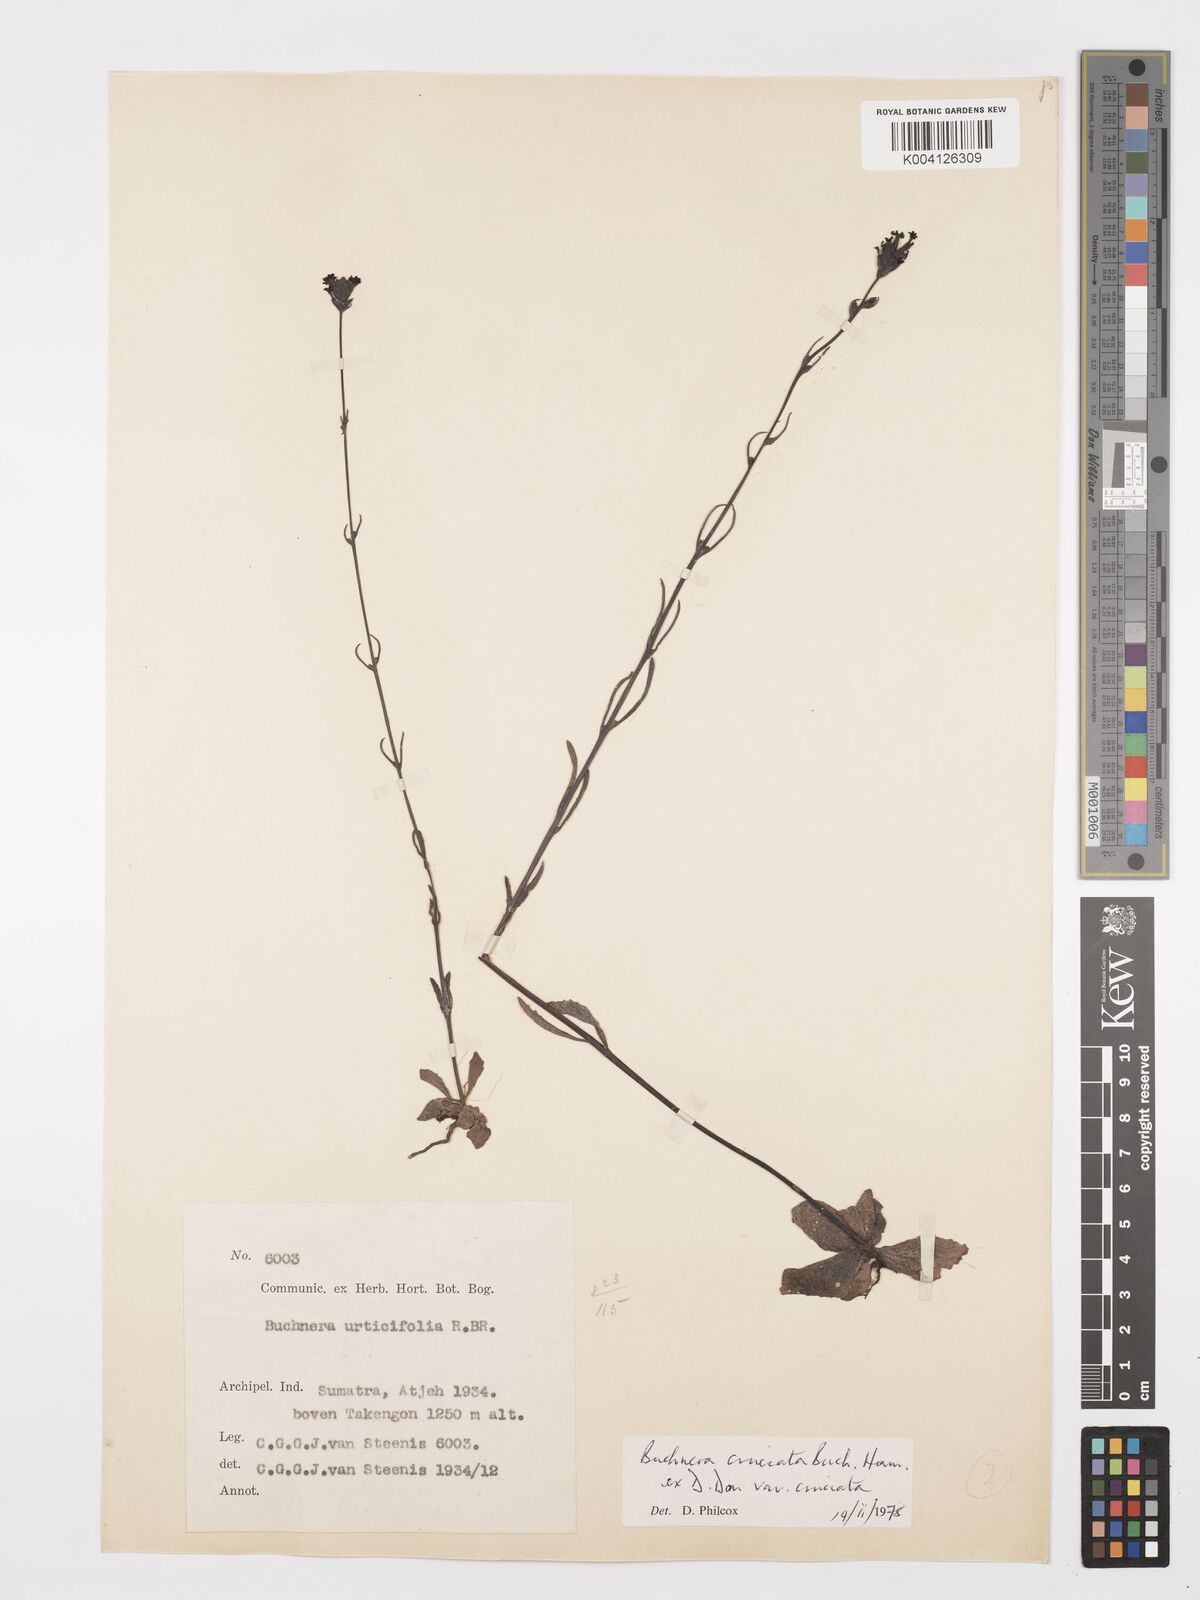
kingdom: Plantae
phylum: Tracheophyta
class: Magnoliopsida
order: Lamiales
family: Orobanchaceae
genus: Buchnera
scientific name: Buchnera cruciata
